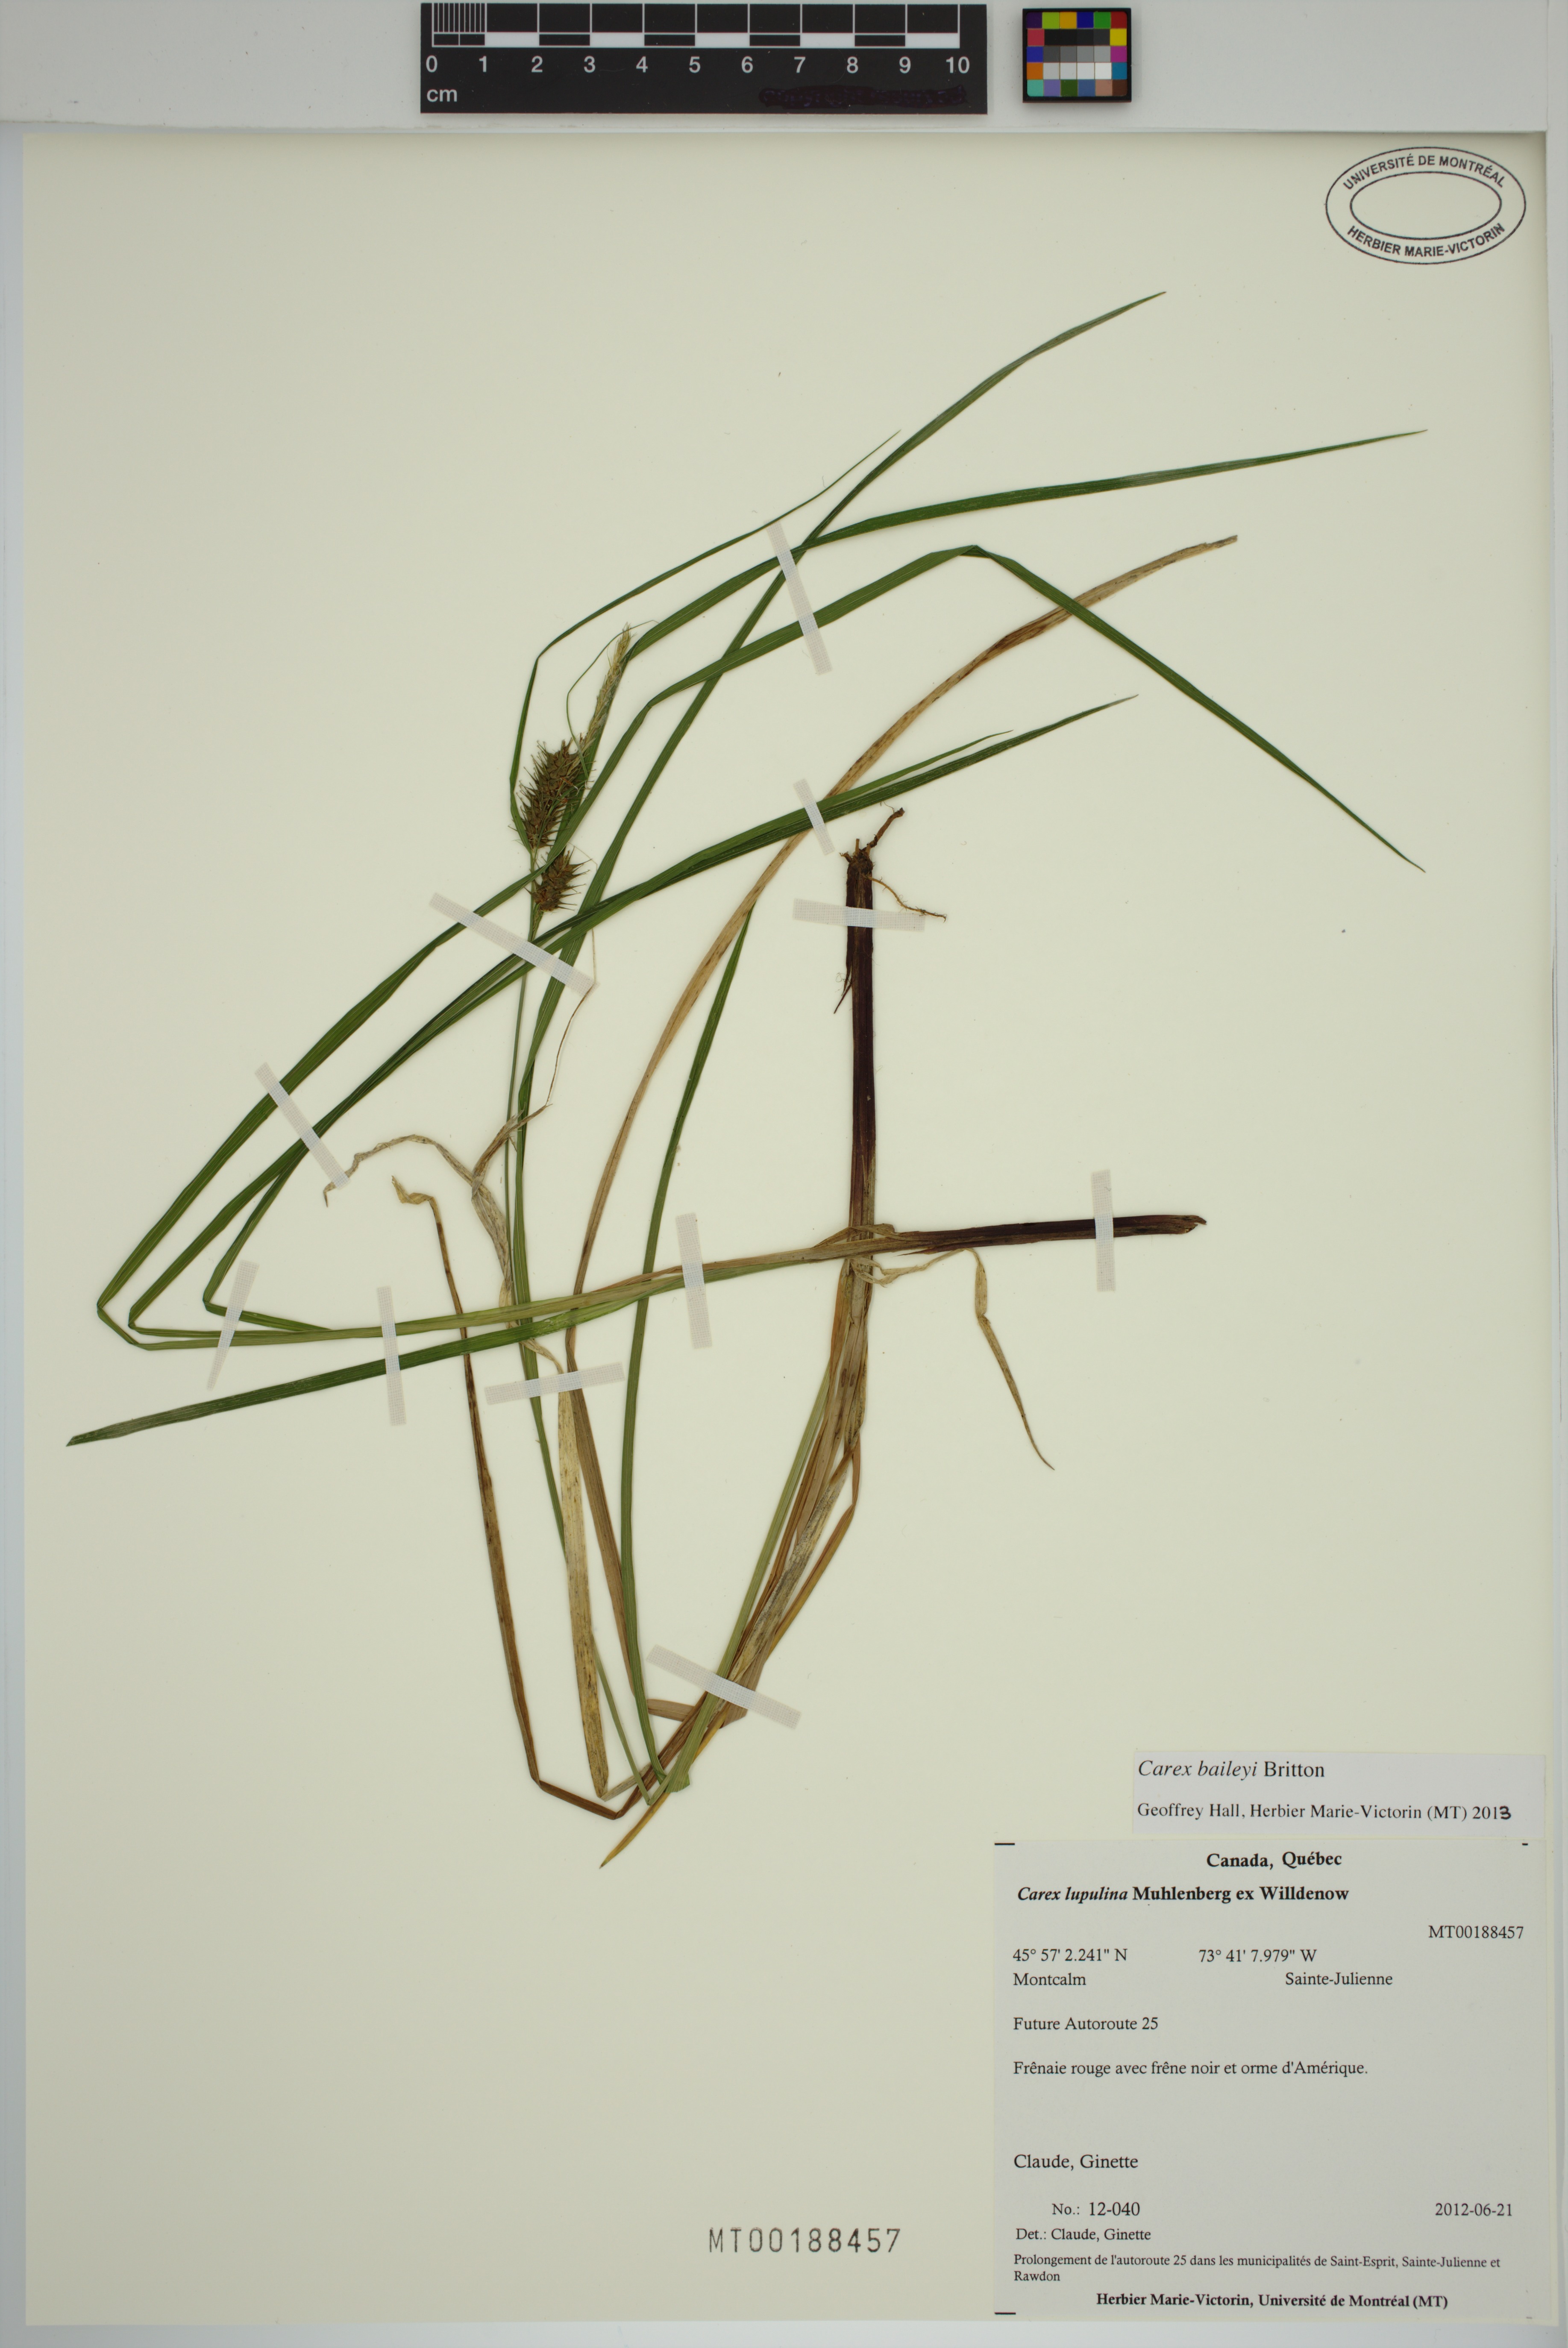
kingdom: Plantae
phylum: Tracheophyta
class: Liliopsida
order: Poales
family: Cyperaceae
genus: Carex
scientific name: Carex baileyi
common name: Bailey's sedge
